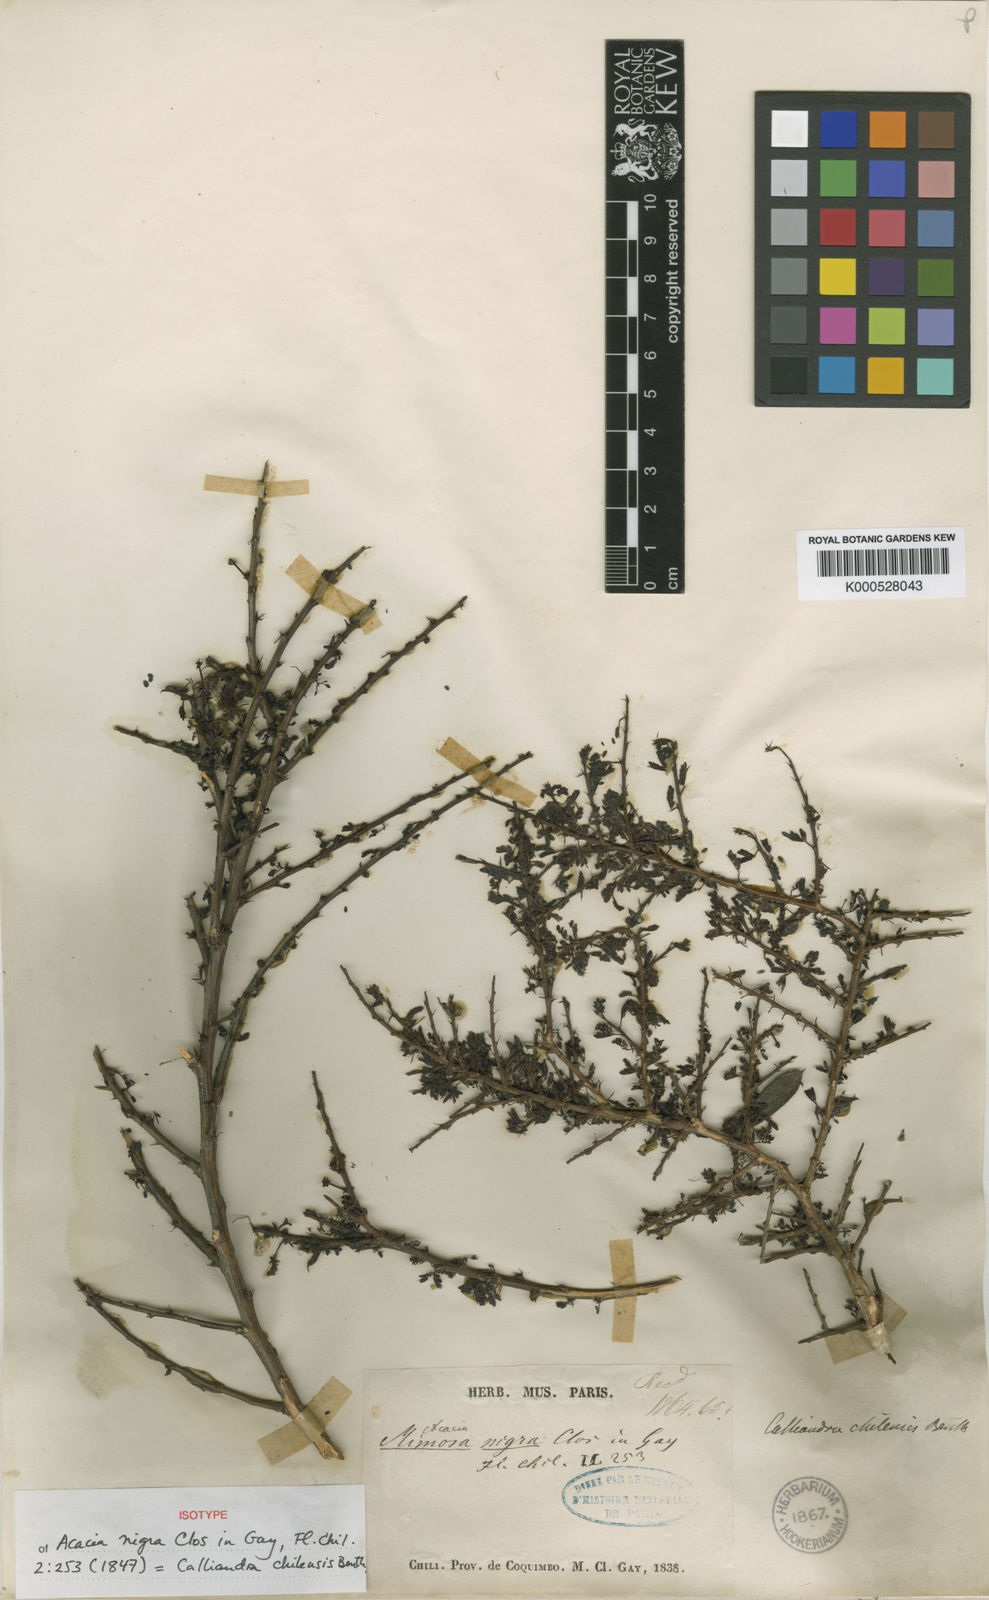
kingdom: Plantae
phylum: Tracheophyta
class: Magnoliopsida
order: Fabales
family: Fabaceae
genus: Calliandra
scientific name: Calliandra chilensis
